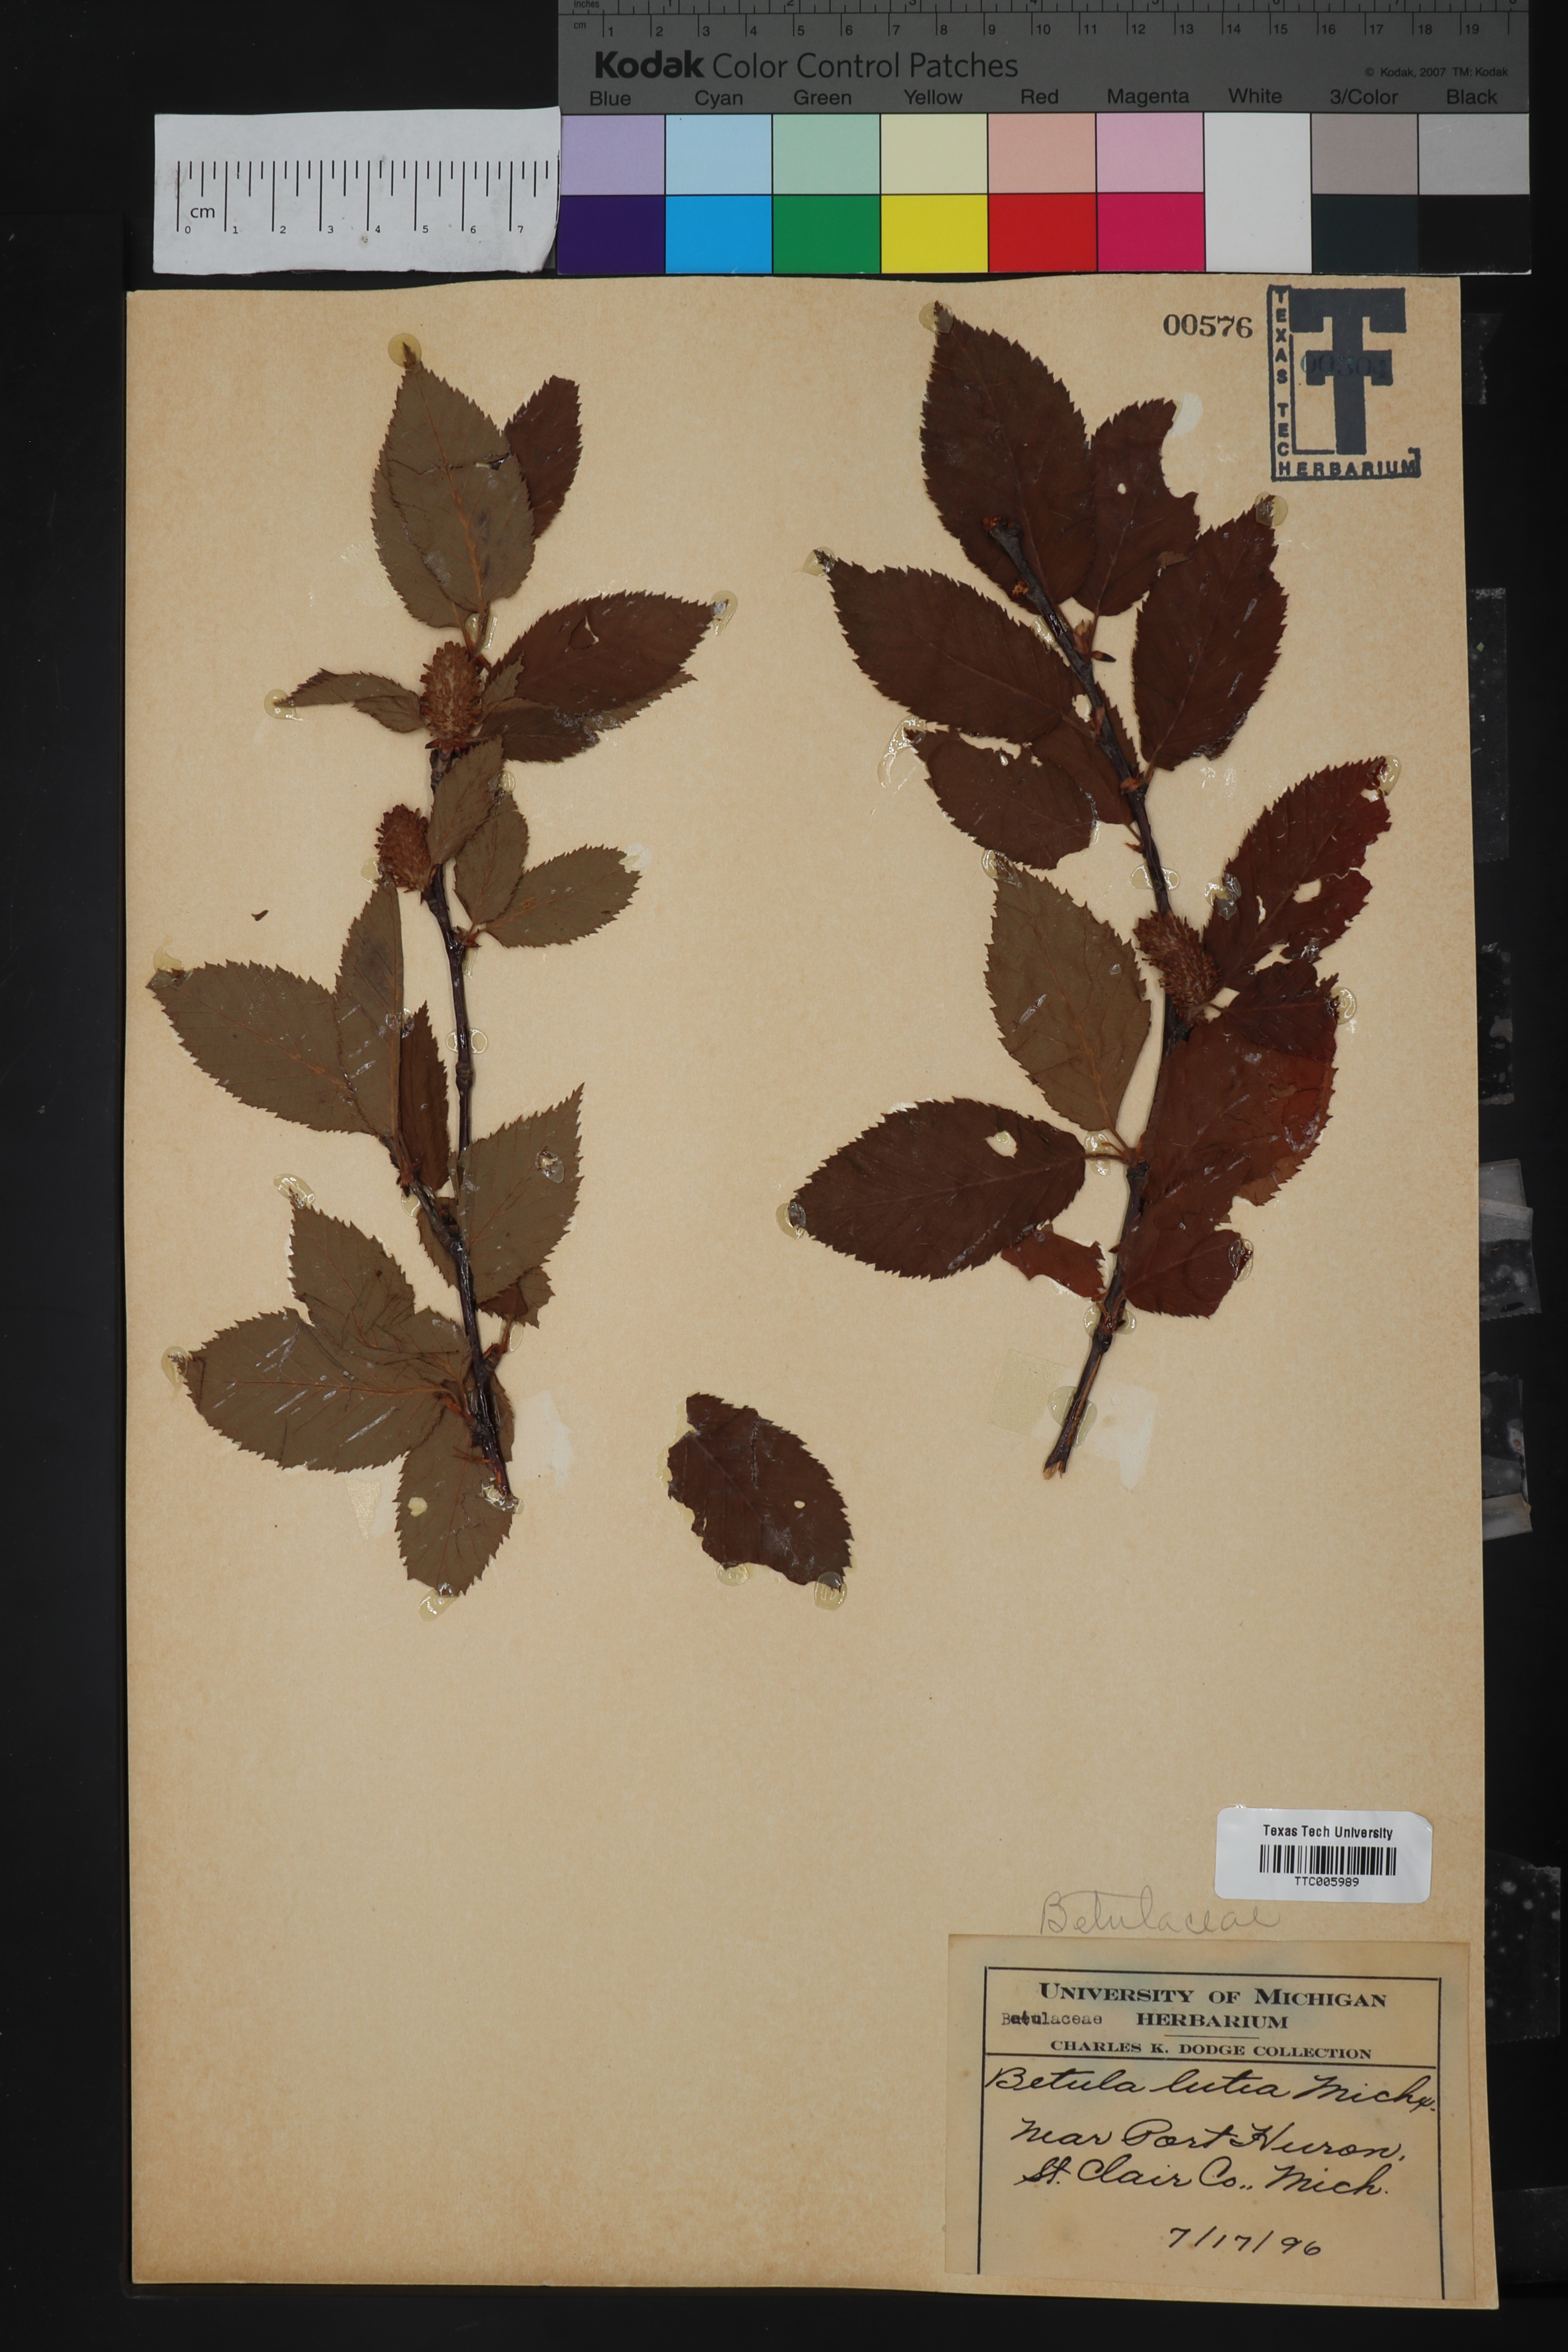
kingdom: Plantae
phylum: Tracheophyta
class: Magnoliopsida
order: Fagales
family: Betulaceae
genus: Betula
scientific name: Betula alleghaniensis
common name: Yellow birch
